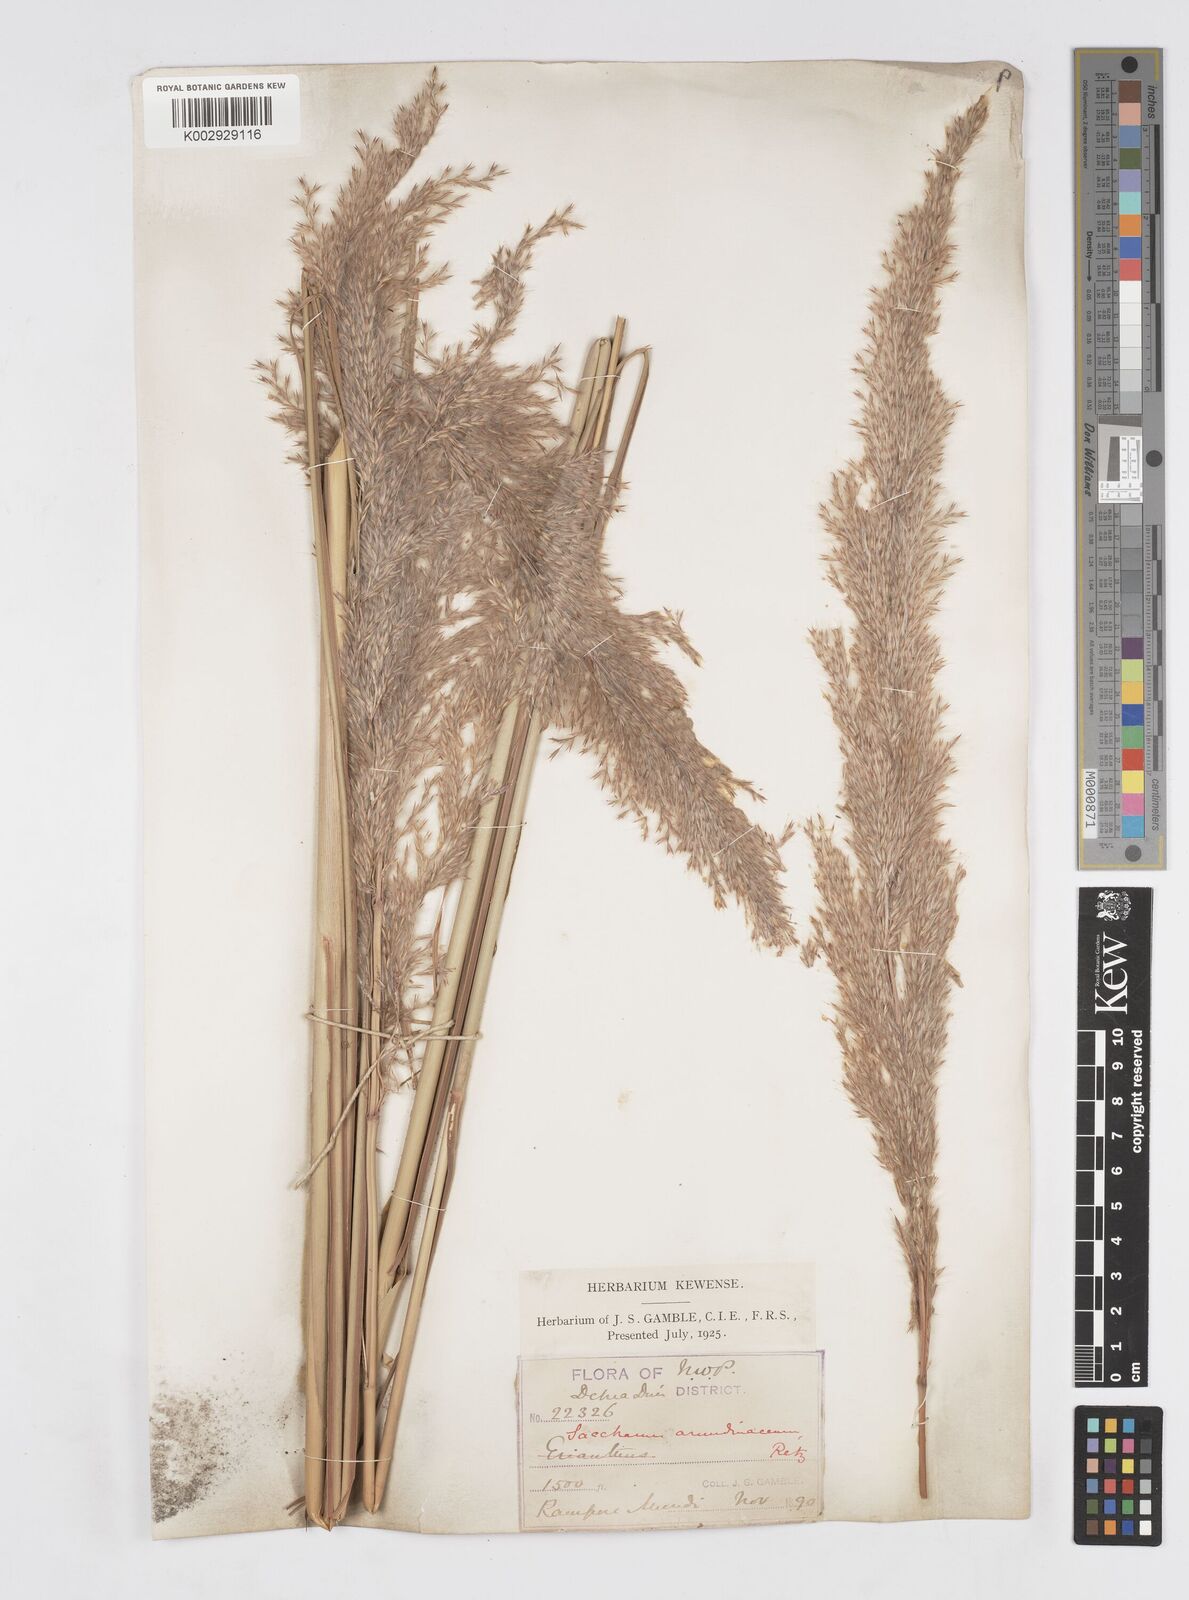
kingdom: Plantae
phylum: Tracheophyta
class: Liliopsida
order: Poales
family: Poaceae
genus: Tripidium
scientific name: Tripidium bengalense
